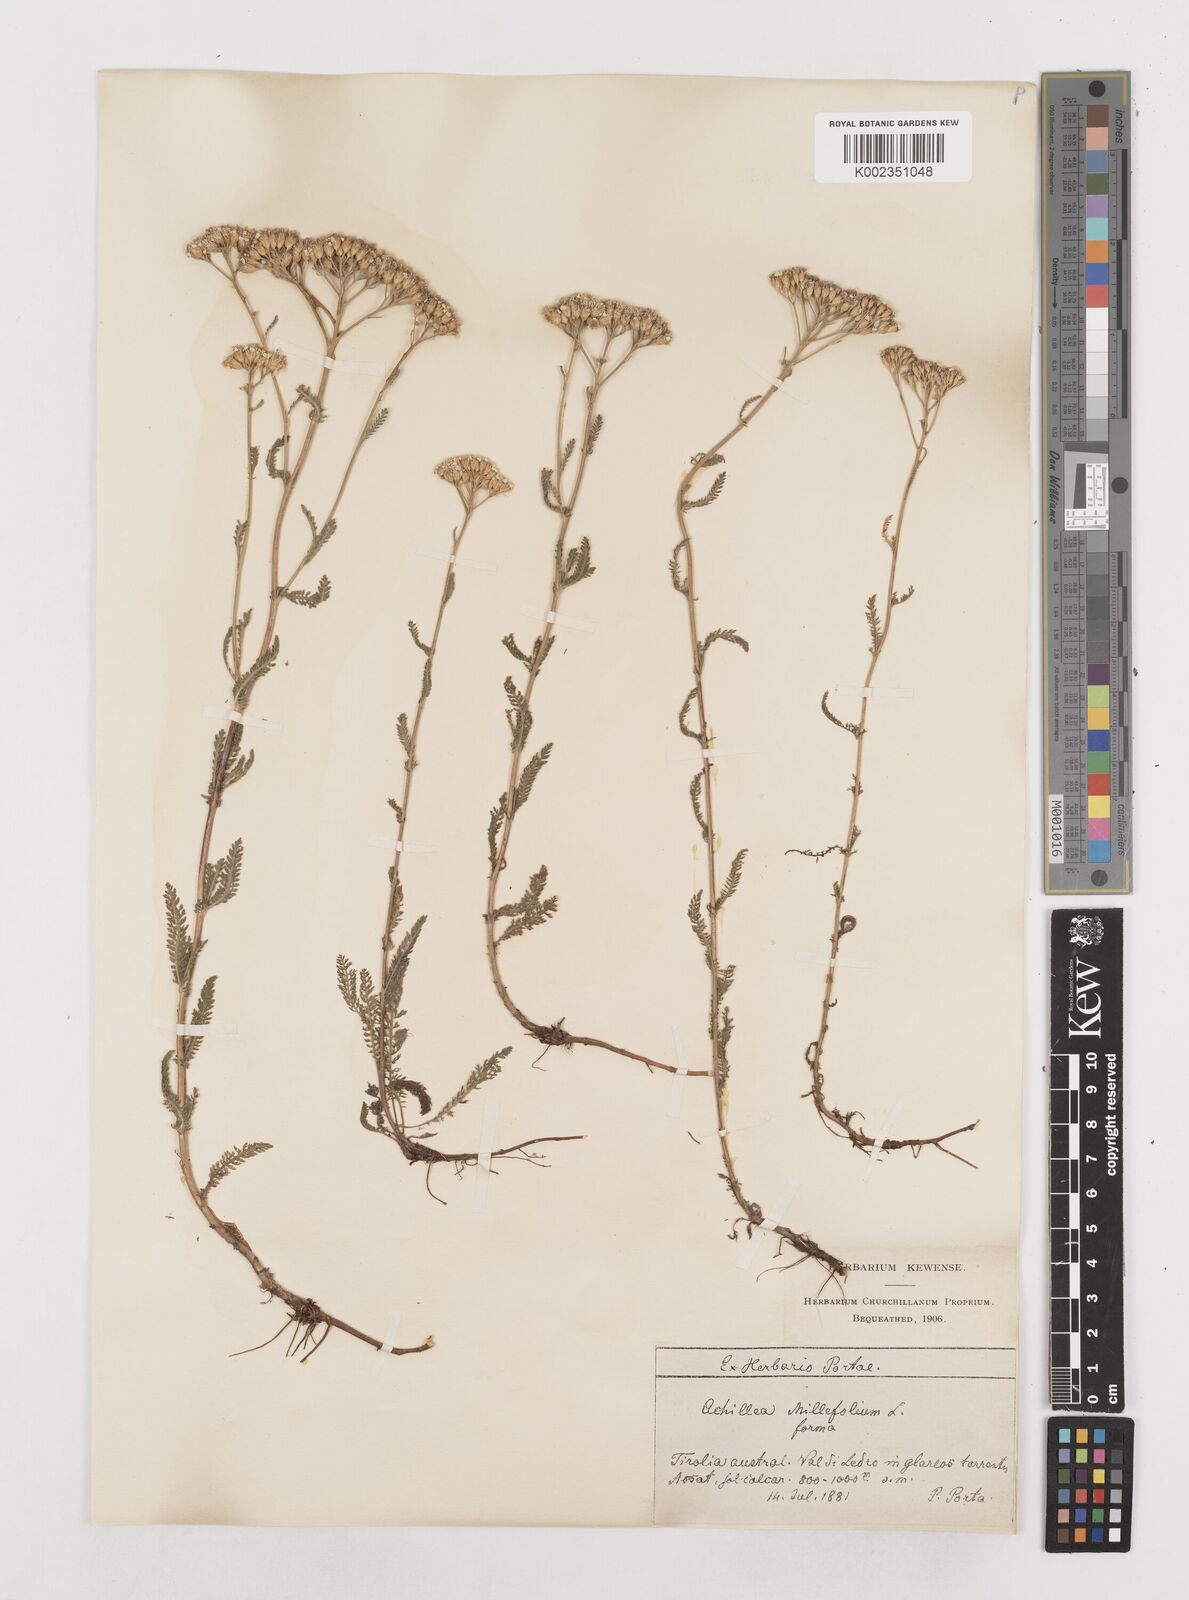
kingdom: Plantae
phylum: Tracheophyta
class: Magnoliopsida
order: Asterales
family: Asteraceae
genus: Achillea
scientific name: Achillea millefolium
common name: Yarrow
